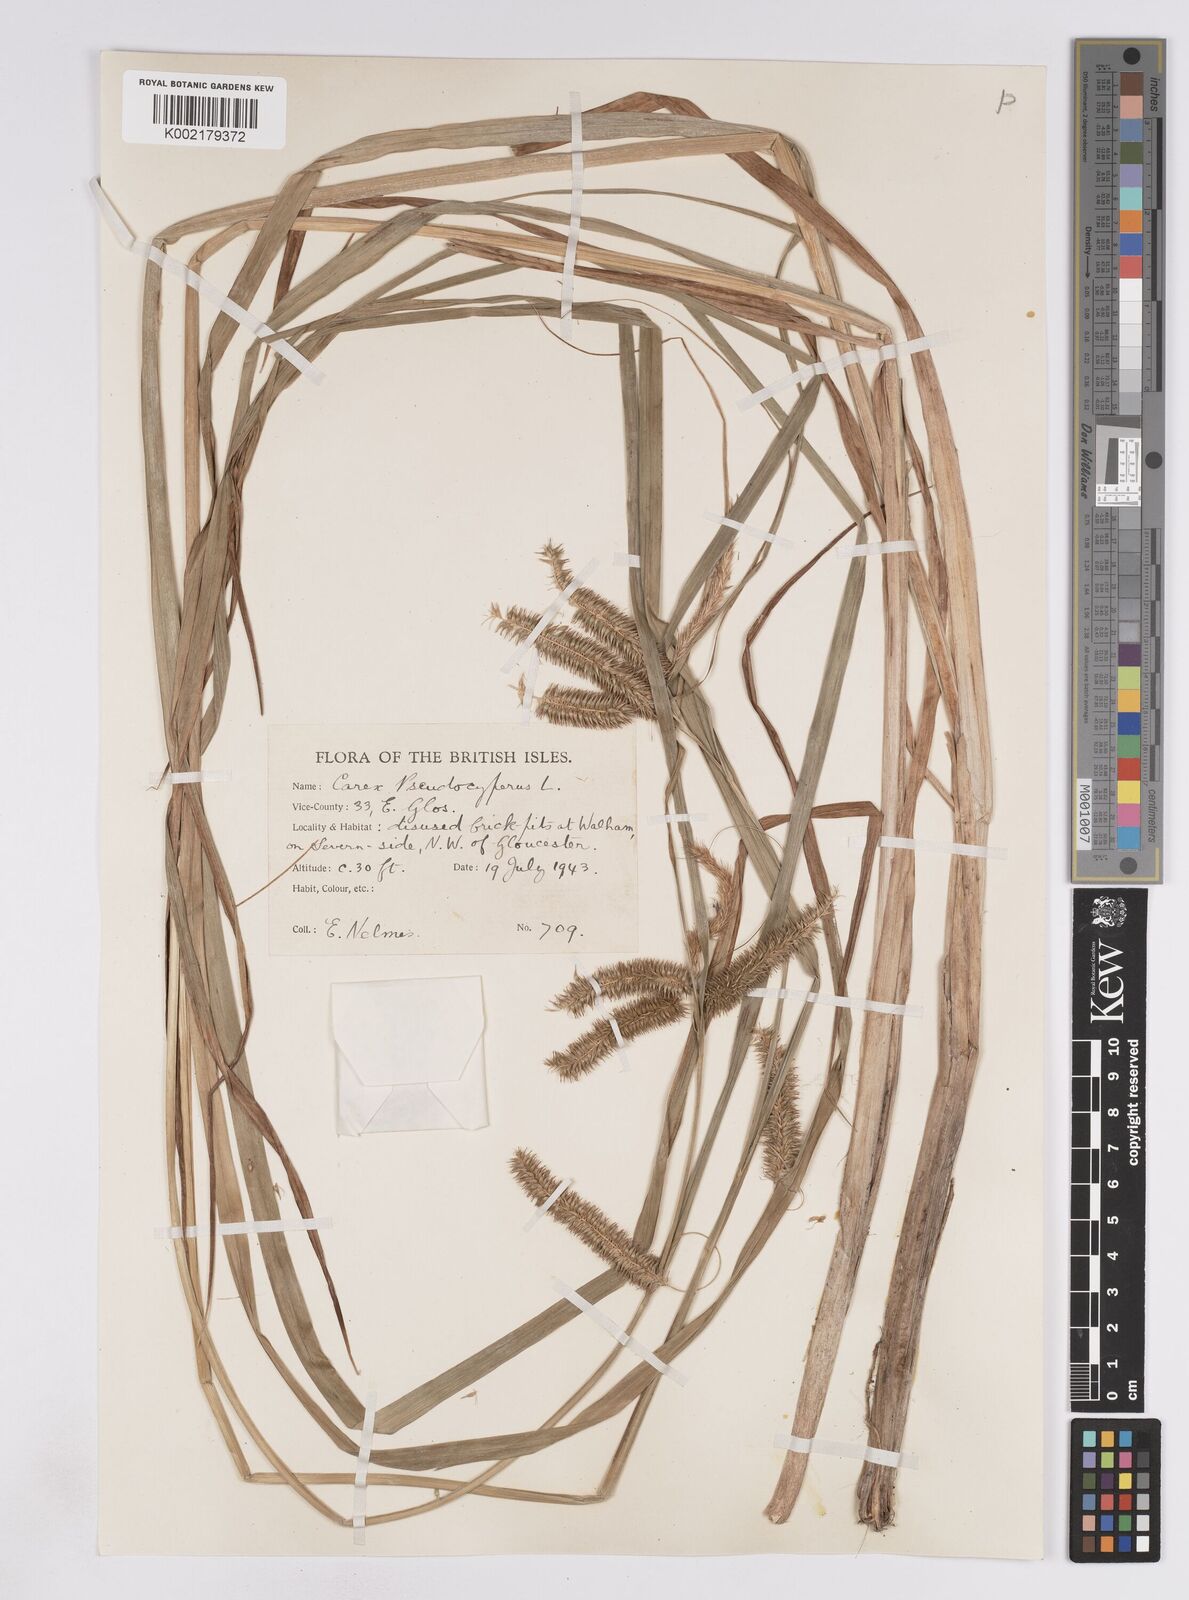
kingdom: Plantae
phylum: Tracheophyta
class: Liliopsida
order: Poales
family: Cyperaceae
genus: Carex
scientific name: Carex pseudocyperus
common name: Cyperus sedge
